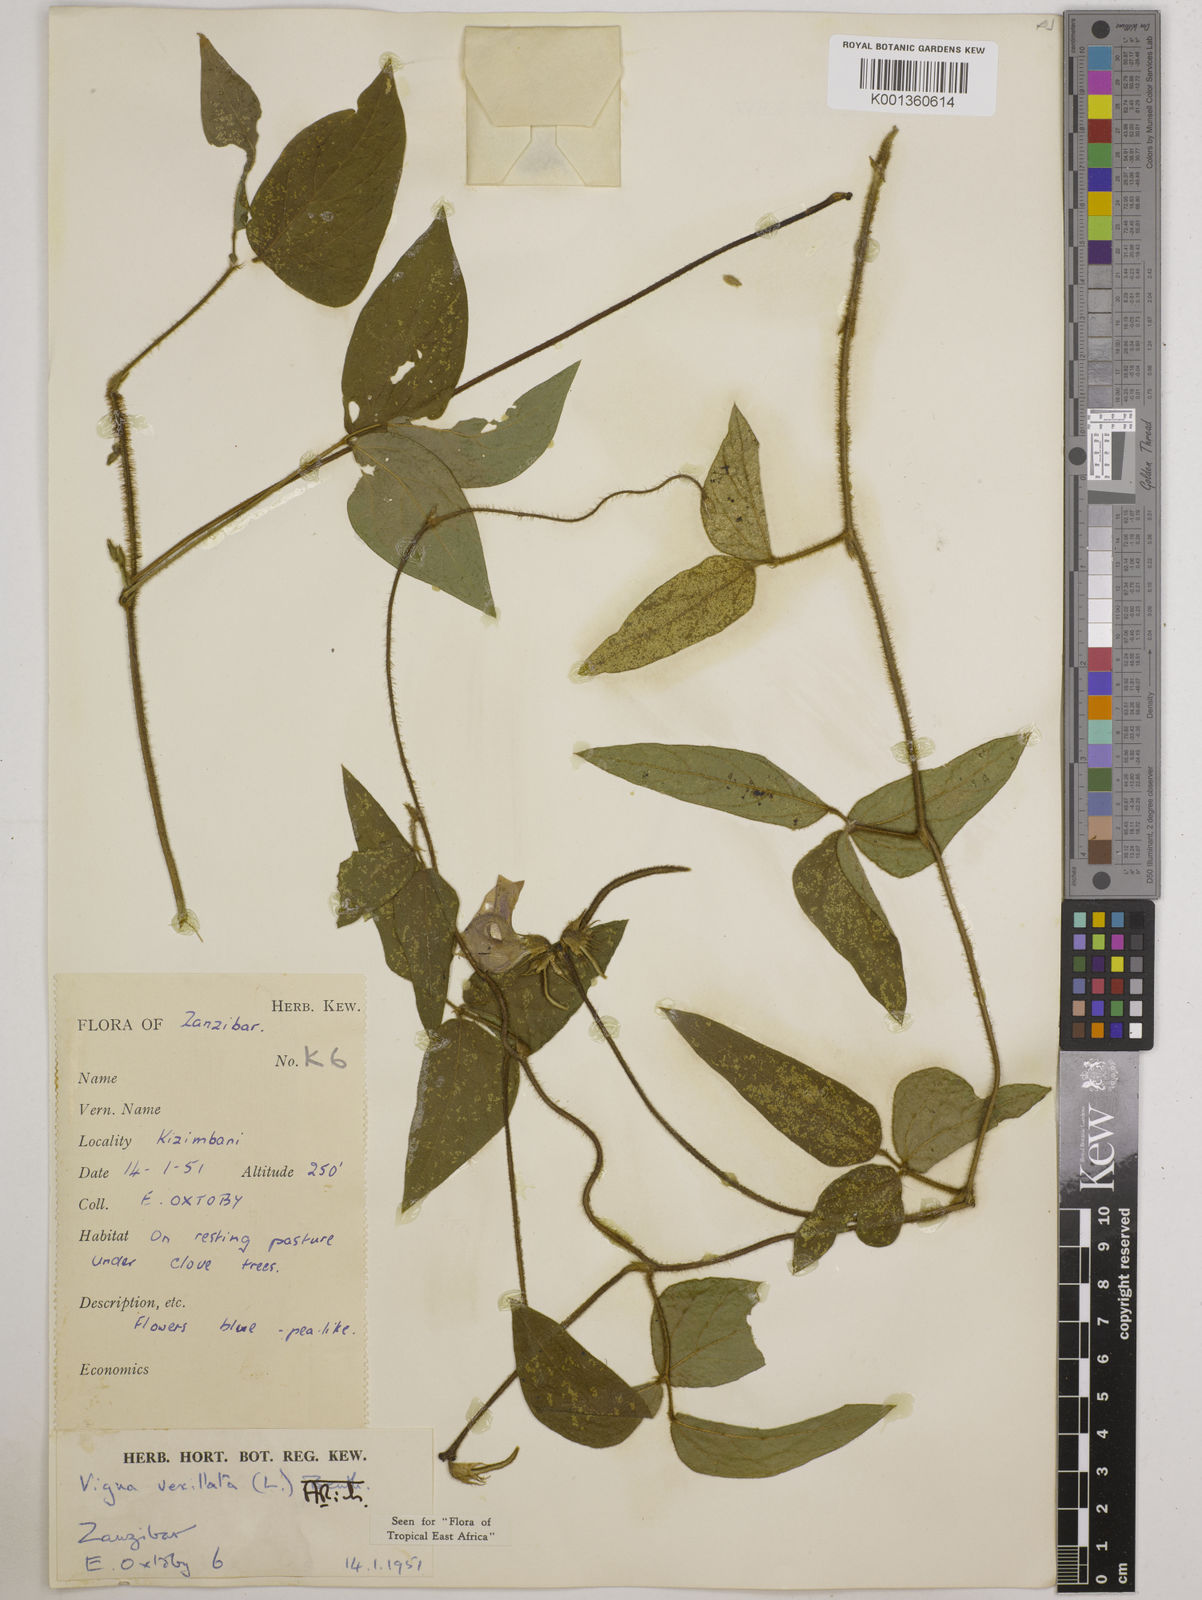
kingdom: Plantae
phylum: Tracheophyta
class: Magnoliopsida
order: Fabales
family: Fabaceae
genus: Vigna
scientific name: Vigna vexillata
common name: Zombi pea
